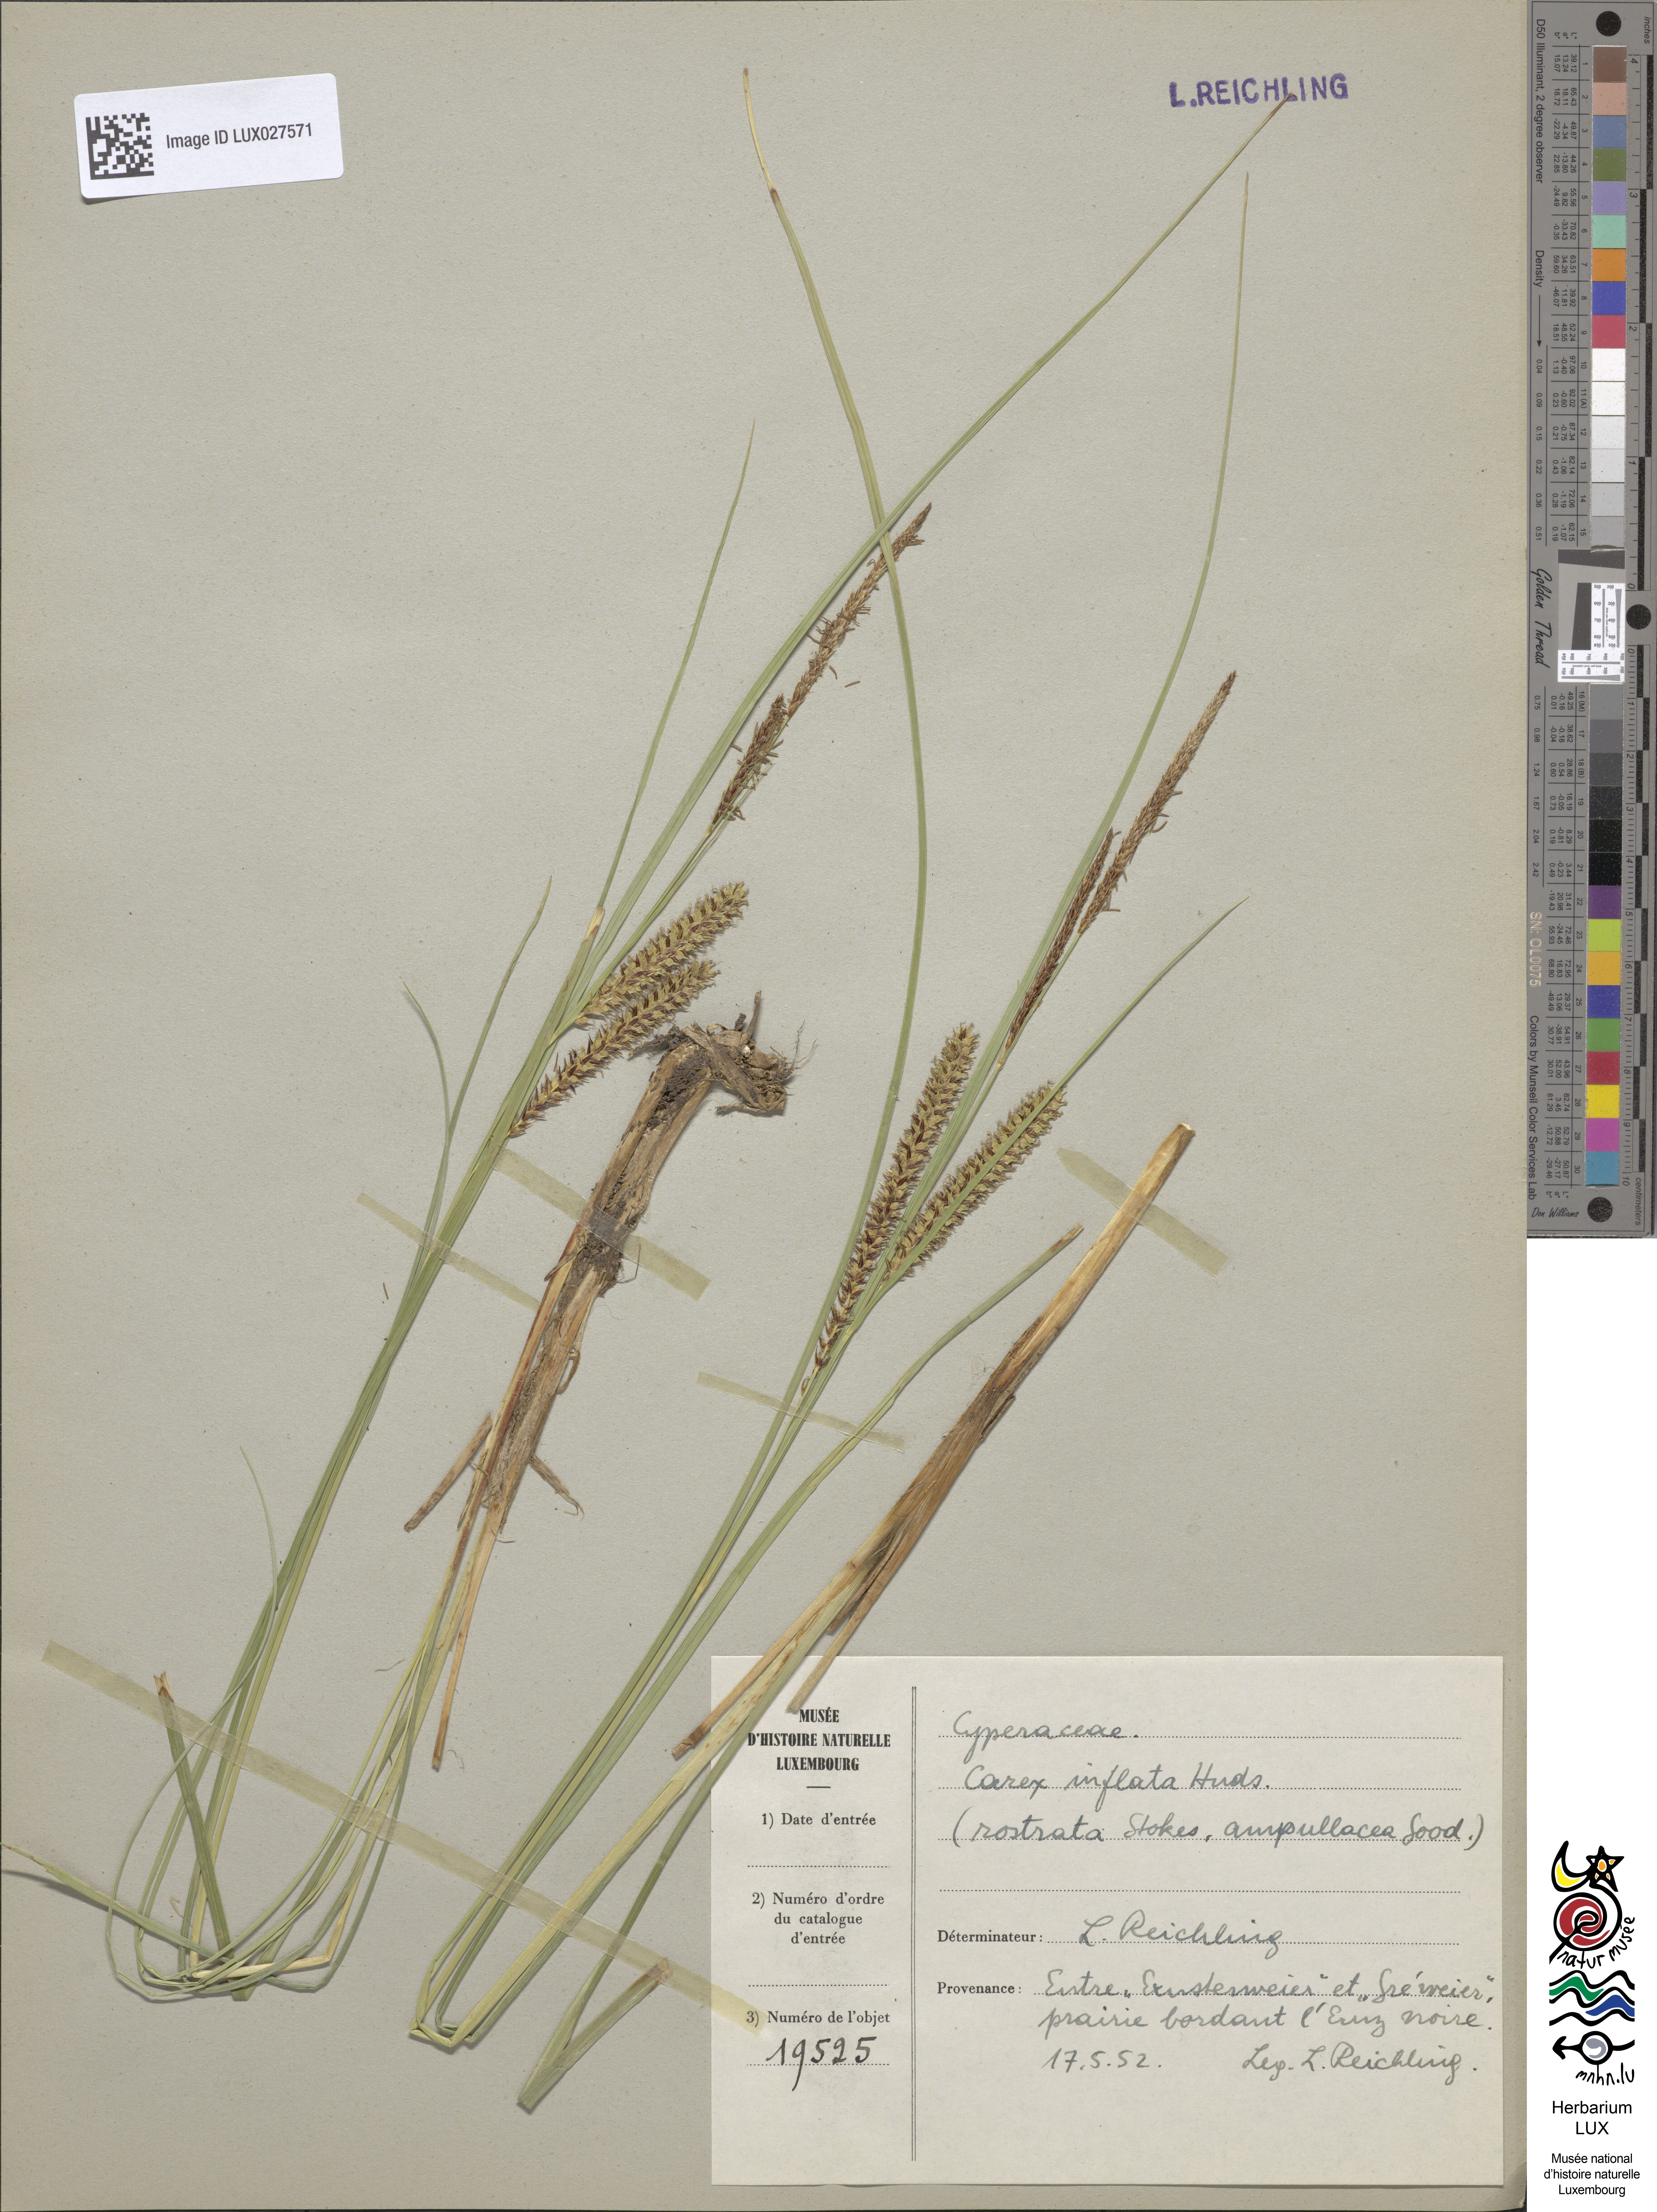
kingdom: Plantae
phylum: Tracheophyta
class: Liliopsida
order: Poales
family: Cyperaceae
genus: Carex
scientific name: Carex rostrata
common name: Bottle sedge
